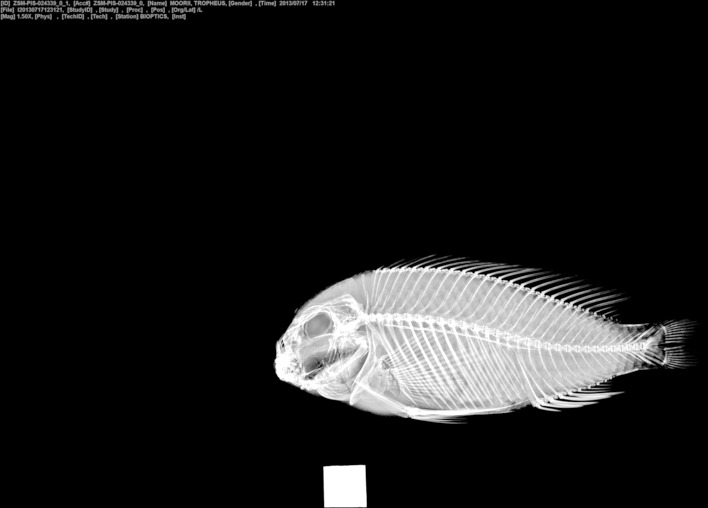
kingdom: Animalia
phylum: Chordata
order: Perciformes
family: Cichlidae
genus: Tropheus
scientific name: Tropheus moorii
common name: Blunthead cichlid
